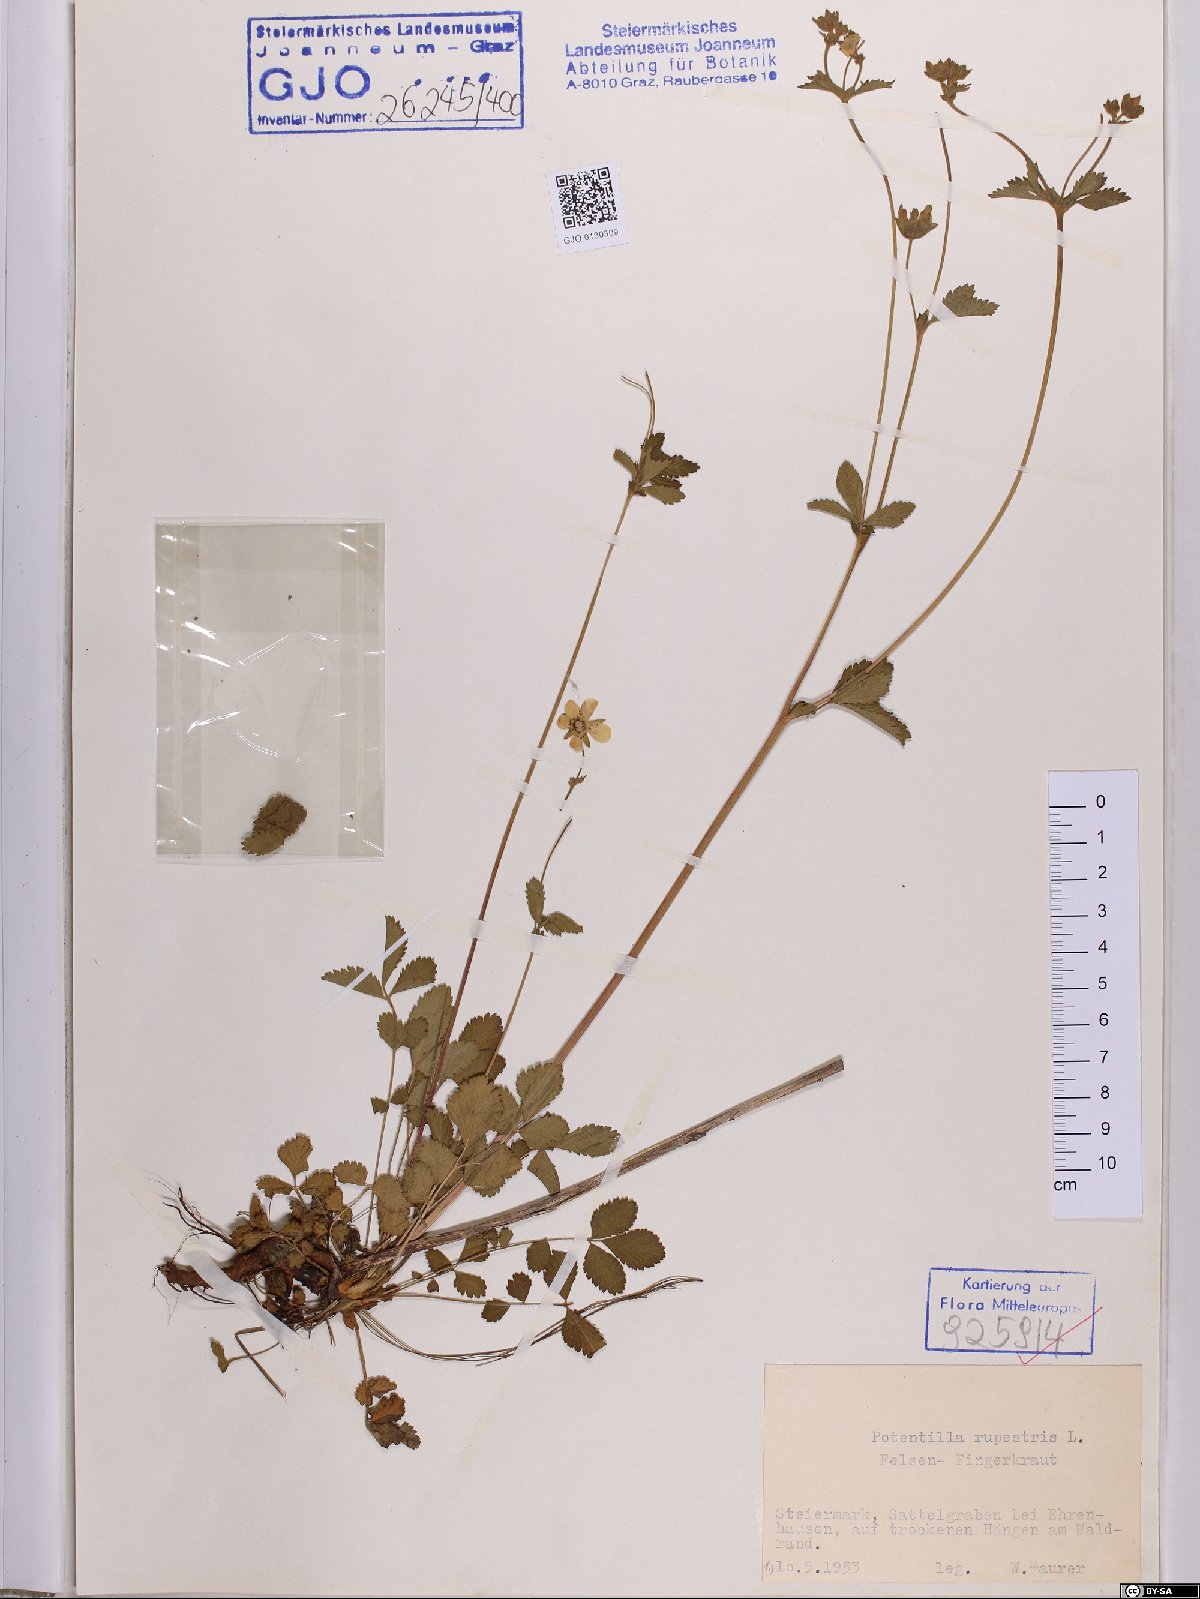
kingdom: Plantae
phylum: Tracheophyta
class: Magnoliopsida
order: Rosales
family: Rosaceae
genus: Drymocallis
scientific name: Drymocallis rupestris
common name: Rock cinquefoil
